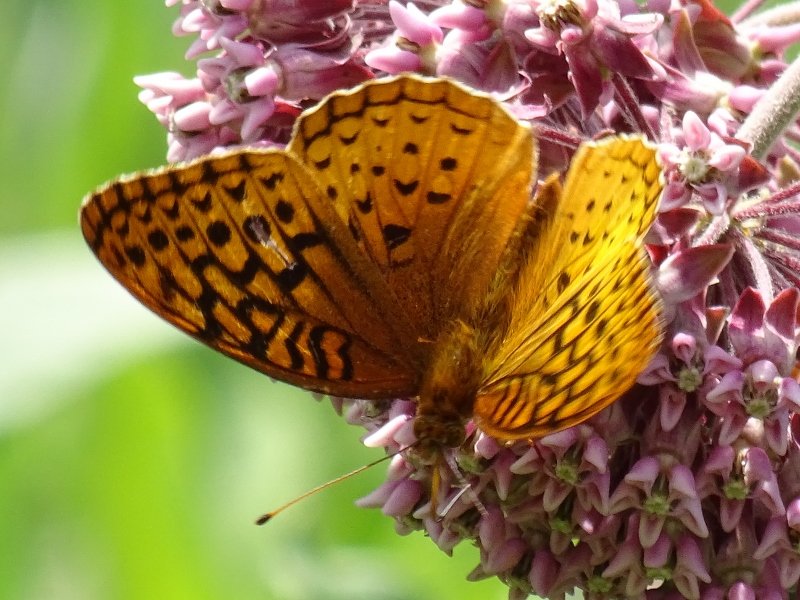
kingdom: Animalia
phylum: Arthropoda
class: Insecta
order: Lepidoptera
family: Nymphalidae
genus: Speyeria
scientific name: Speyeria cybele
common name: Great Spangled Fritillary
